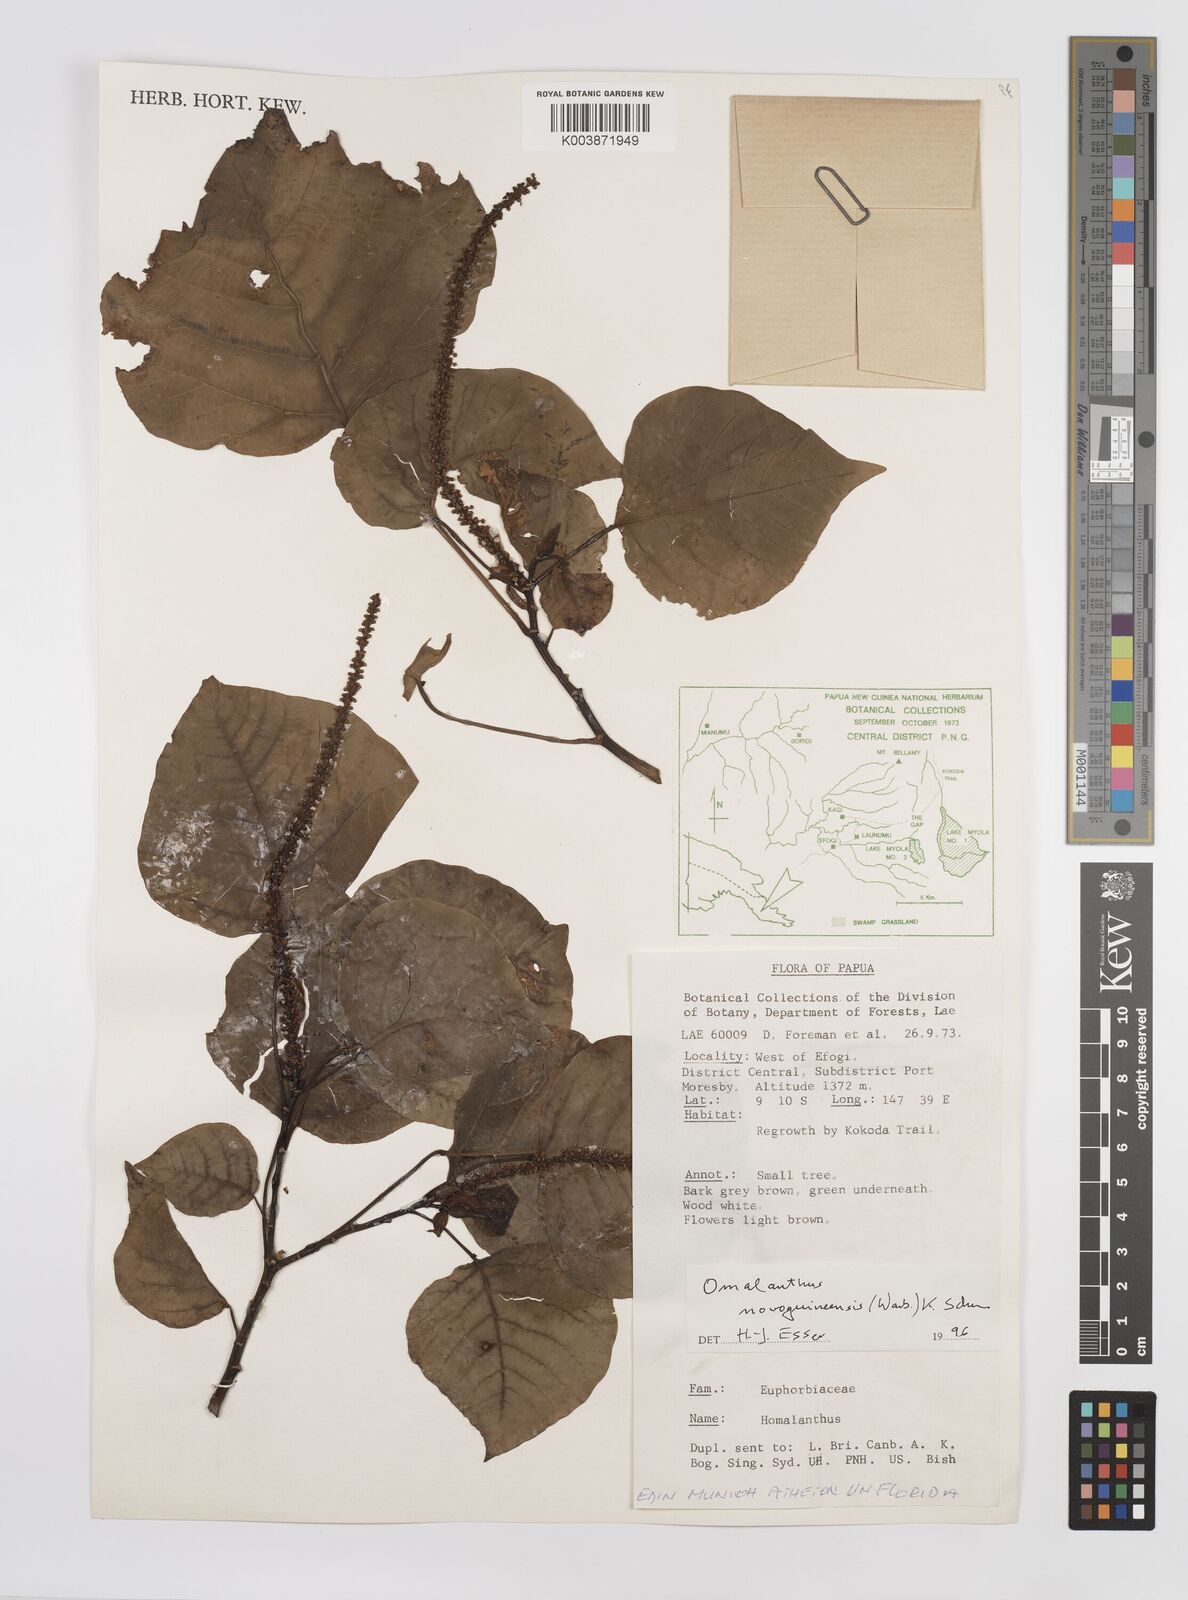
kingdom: Plantae
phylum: Tracheophyta
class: Magnoliopsida
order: Malpighiales
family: Euphorbiaceae
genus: Homalanthus
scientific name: Homalanthus novoguineensis
